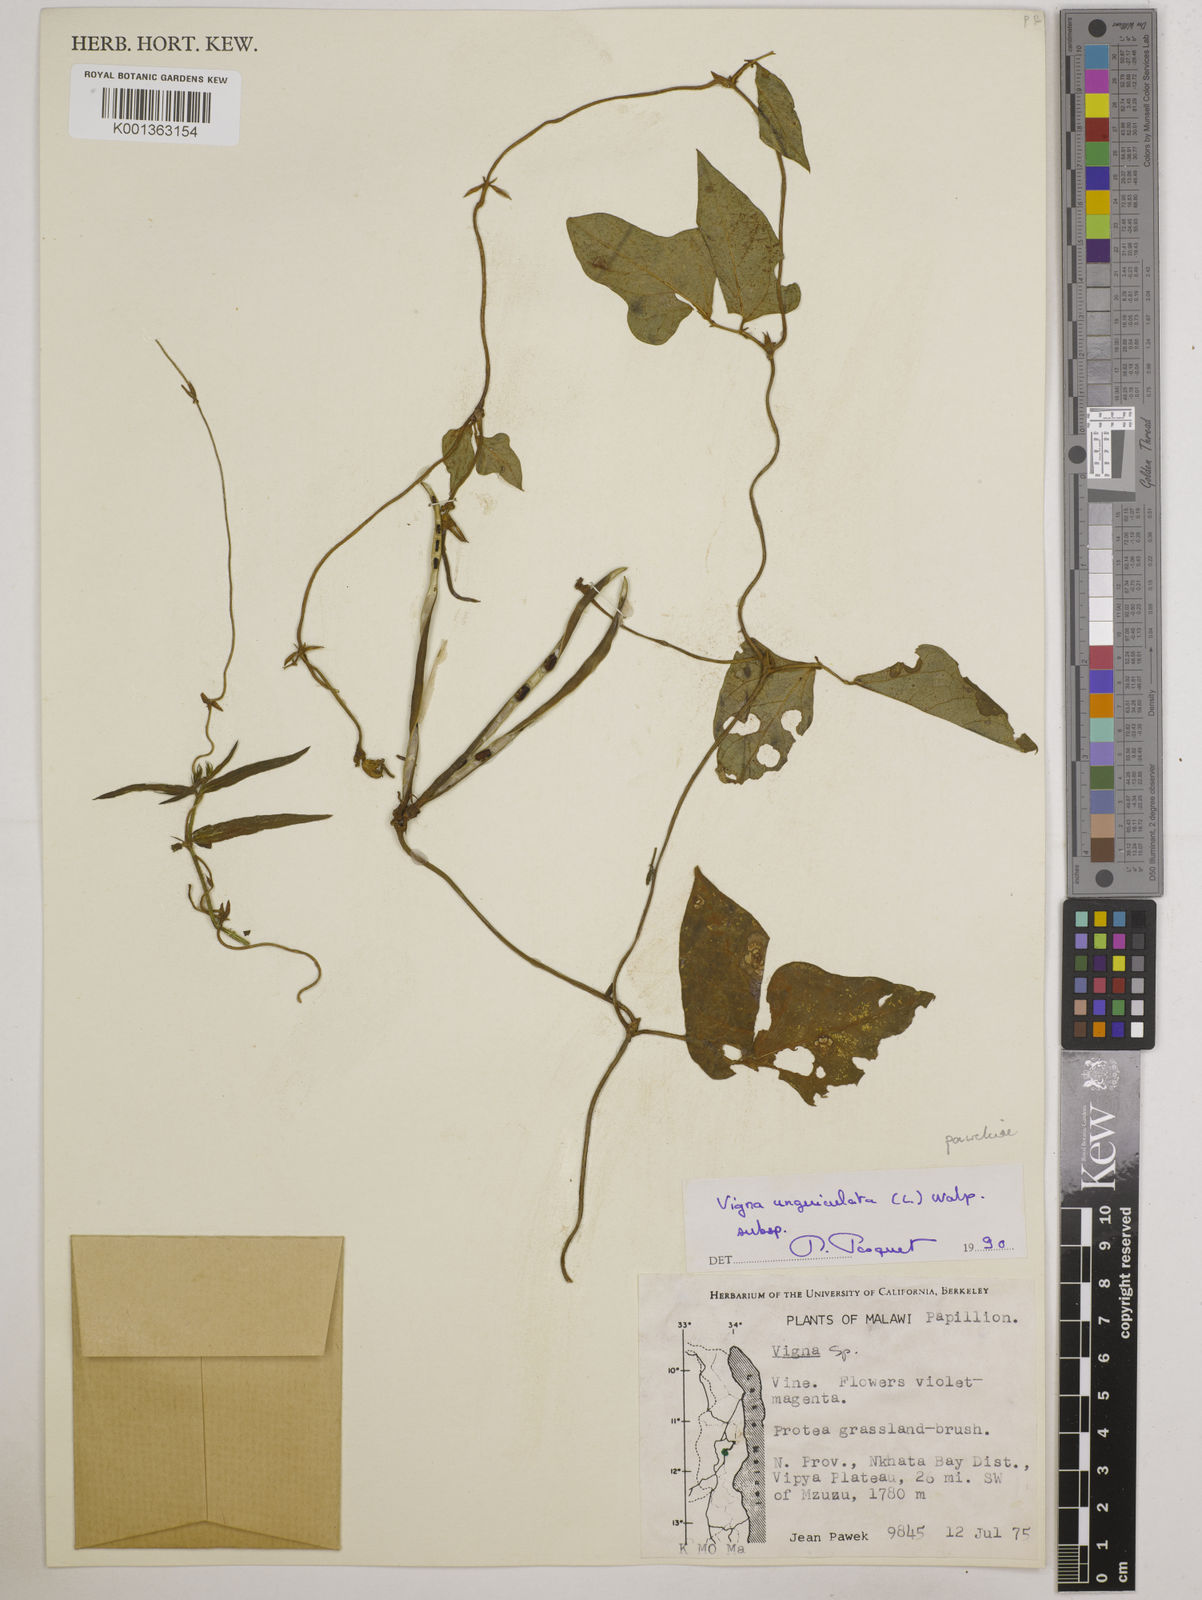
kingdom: Plantae
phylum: Tracheophyta
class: Magnoliopsida
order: Fabales
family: Fabaceae
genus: Vigna
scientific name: Vigna unguiculata
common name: Cowpea
